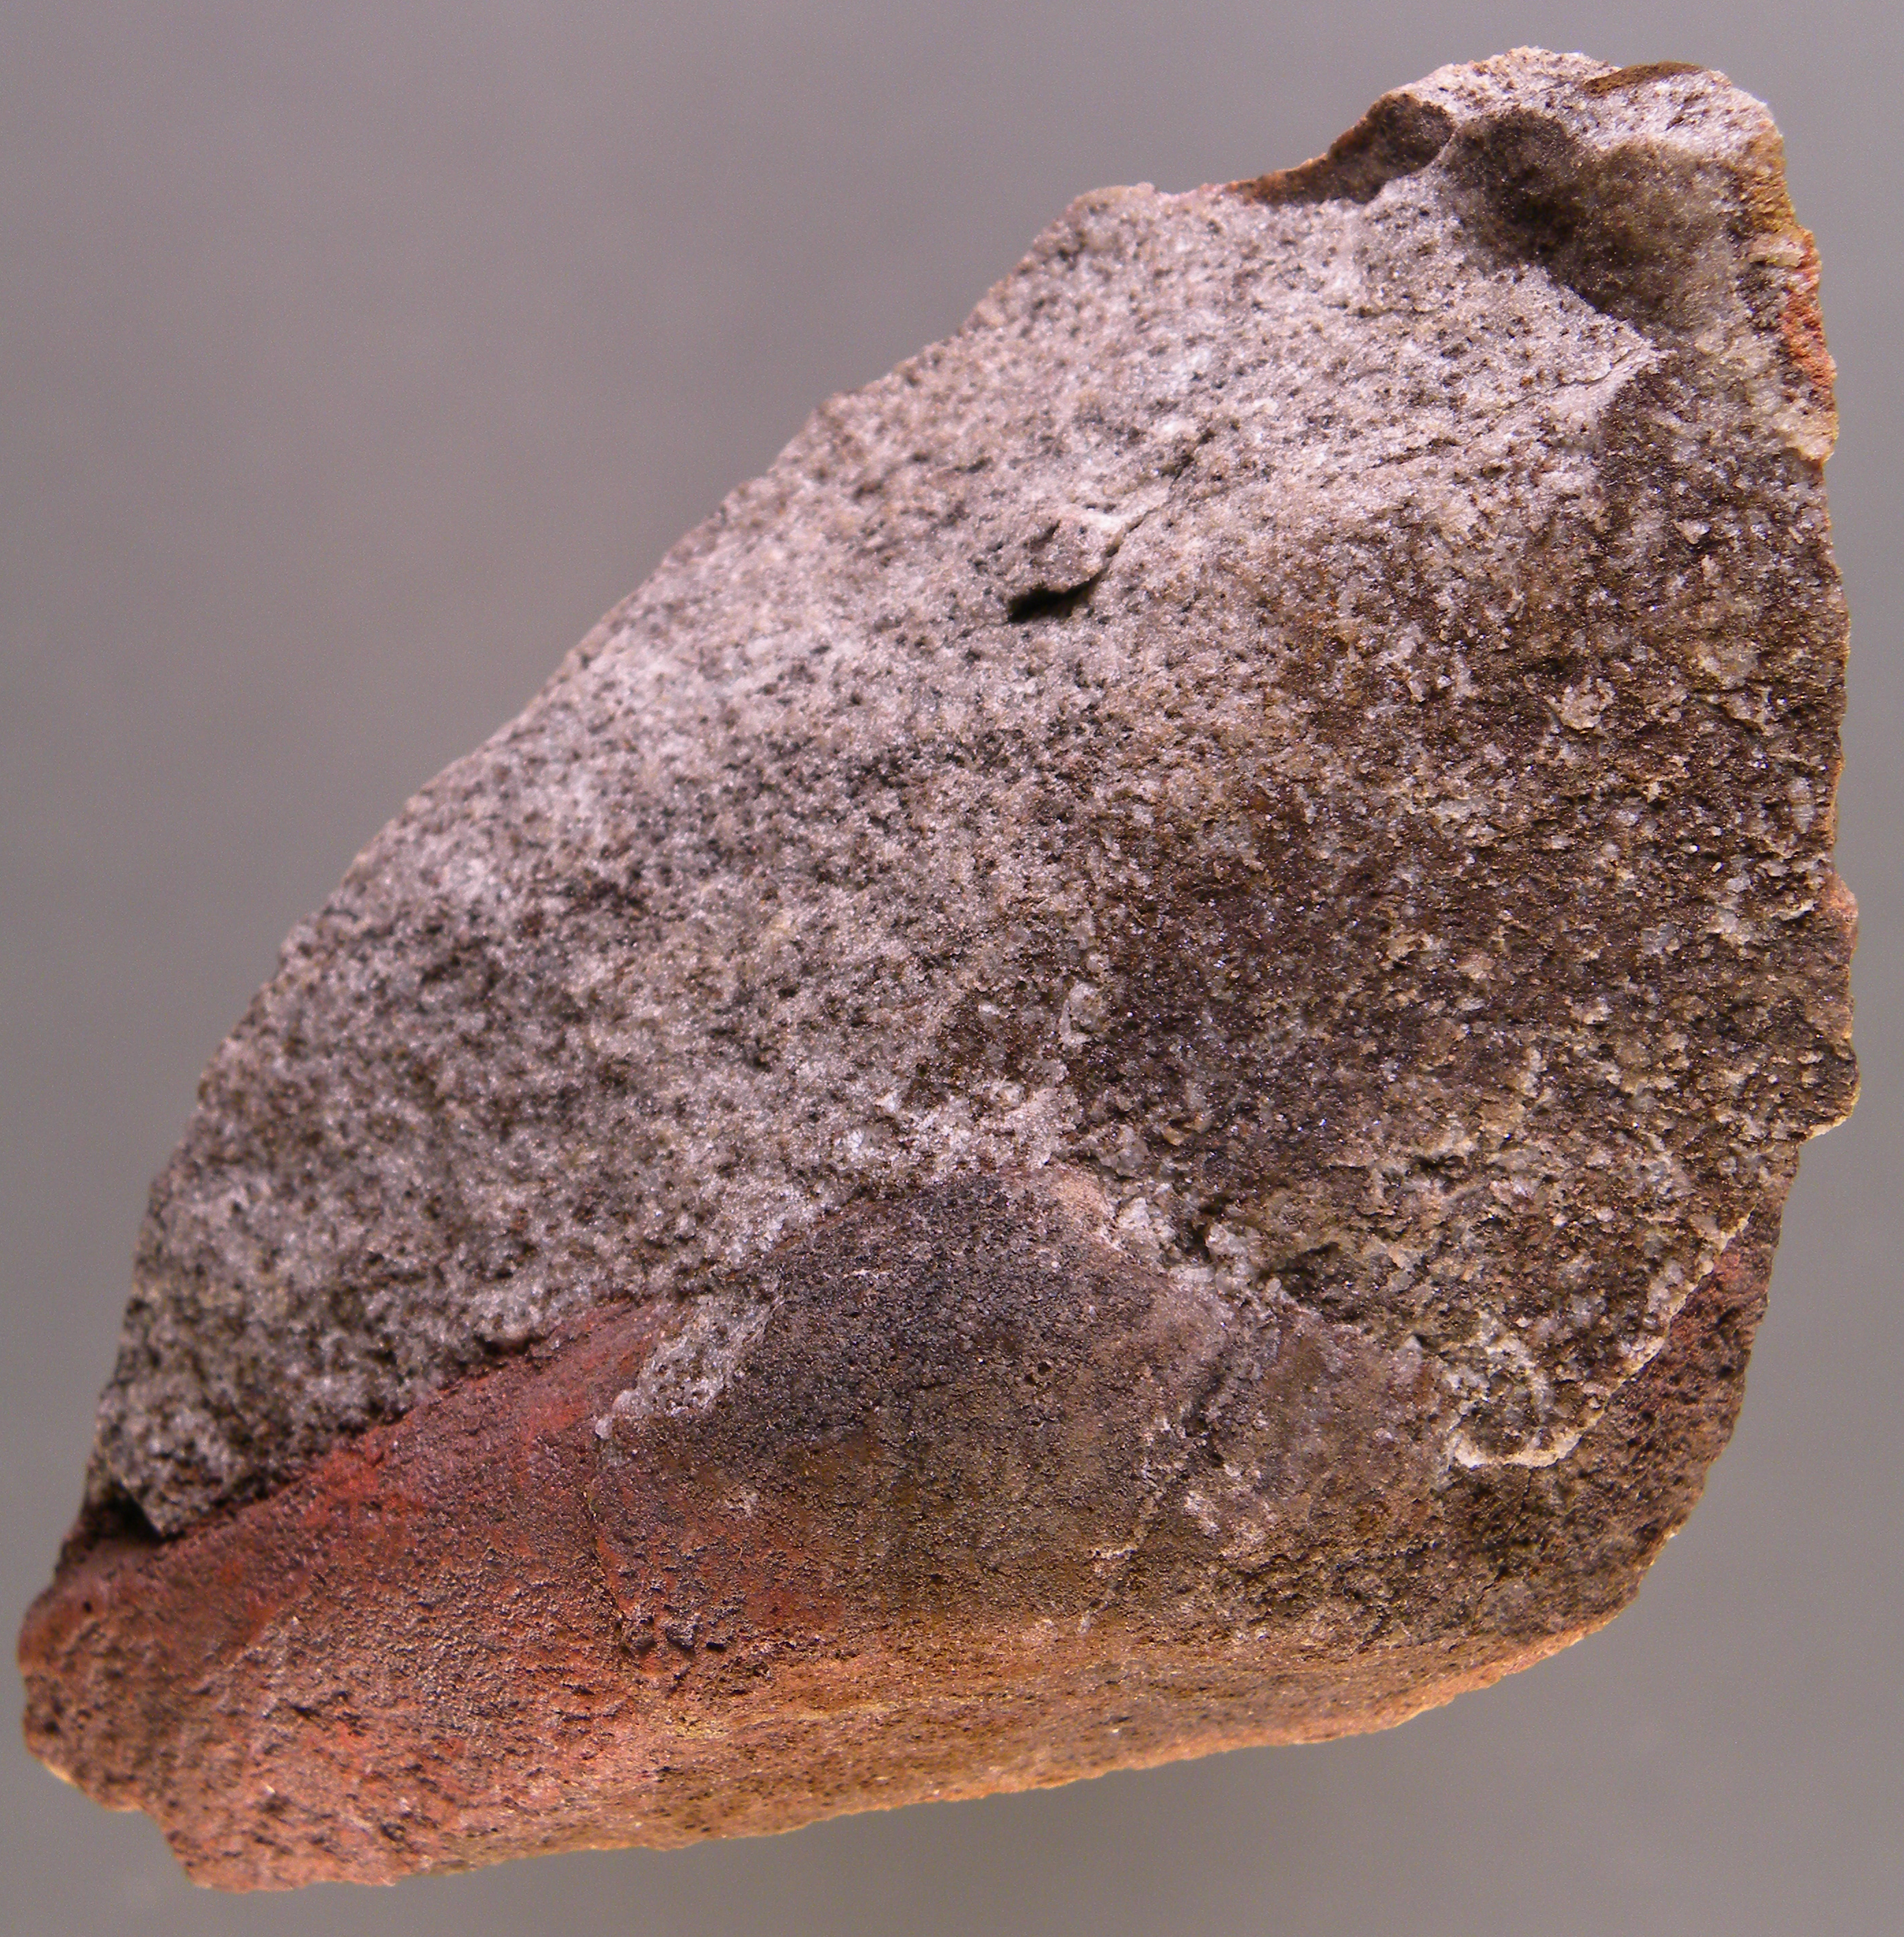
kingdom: Animalia
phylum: Mollusca
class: Bivalvia
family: Grammysiidae
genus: Grammysia
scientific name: Grammysia
